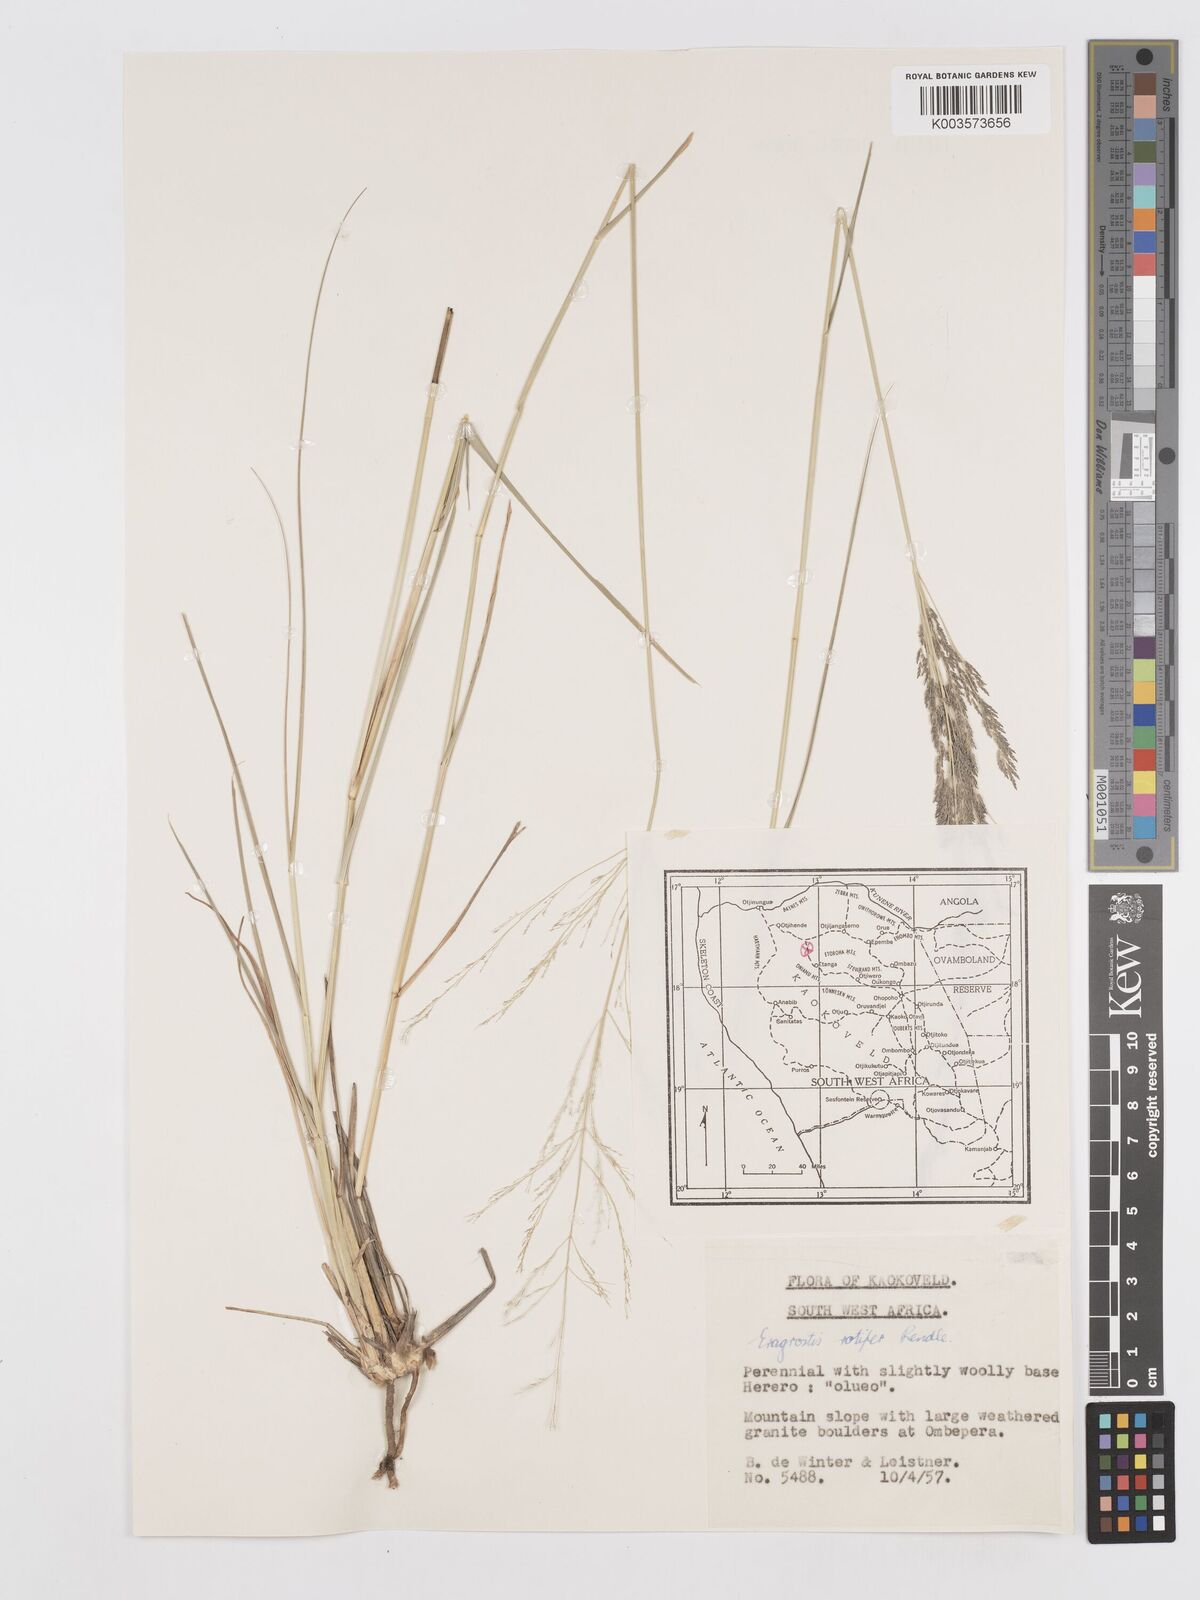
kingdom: Plantae
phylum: Tracheophyta
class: Liliopsida
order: Poales
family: Poaceae
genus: Eragrostis
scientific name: Eragrostis rotifer
